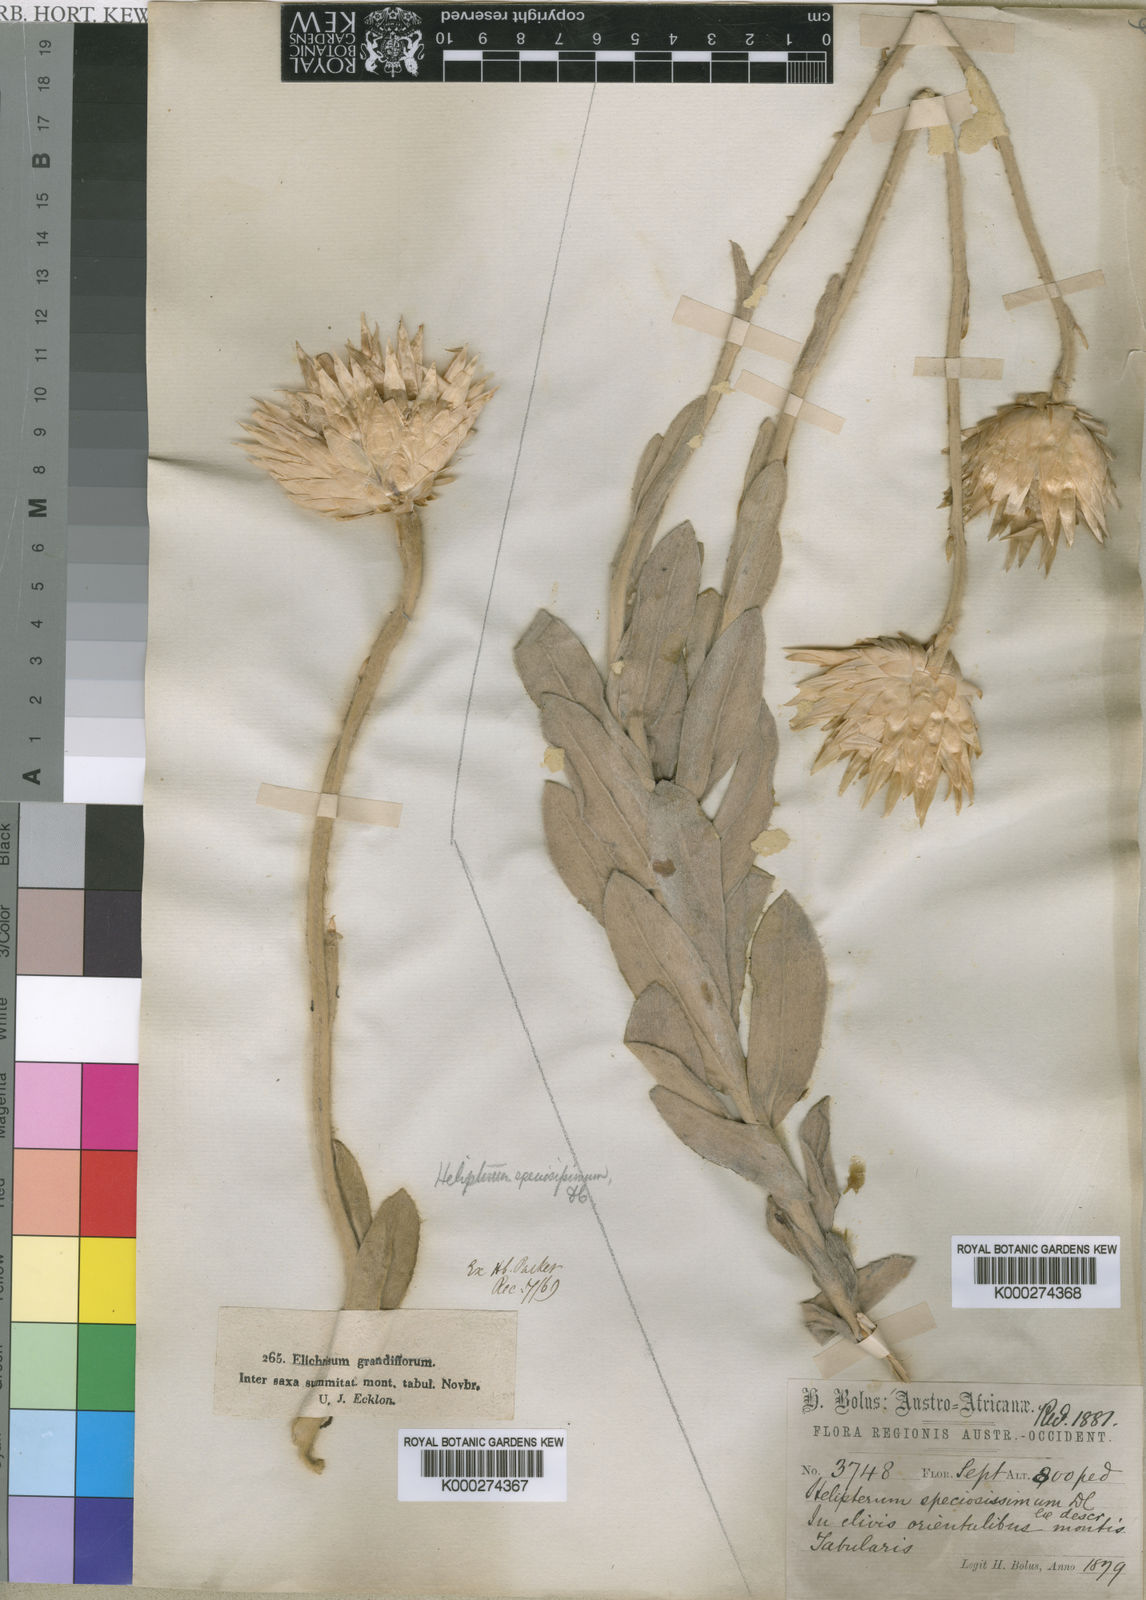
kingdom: Plantae
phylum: Tracheophyta
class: Magnoliopsida
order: Asterales
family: Asteraceae
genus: Syncarpha
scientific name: Syncarpha speciosissima
